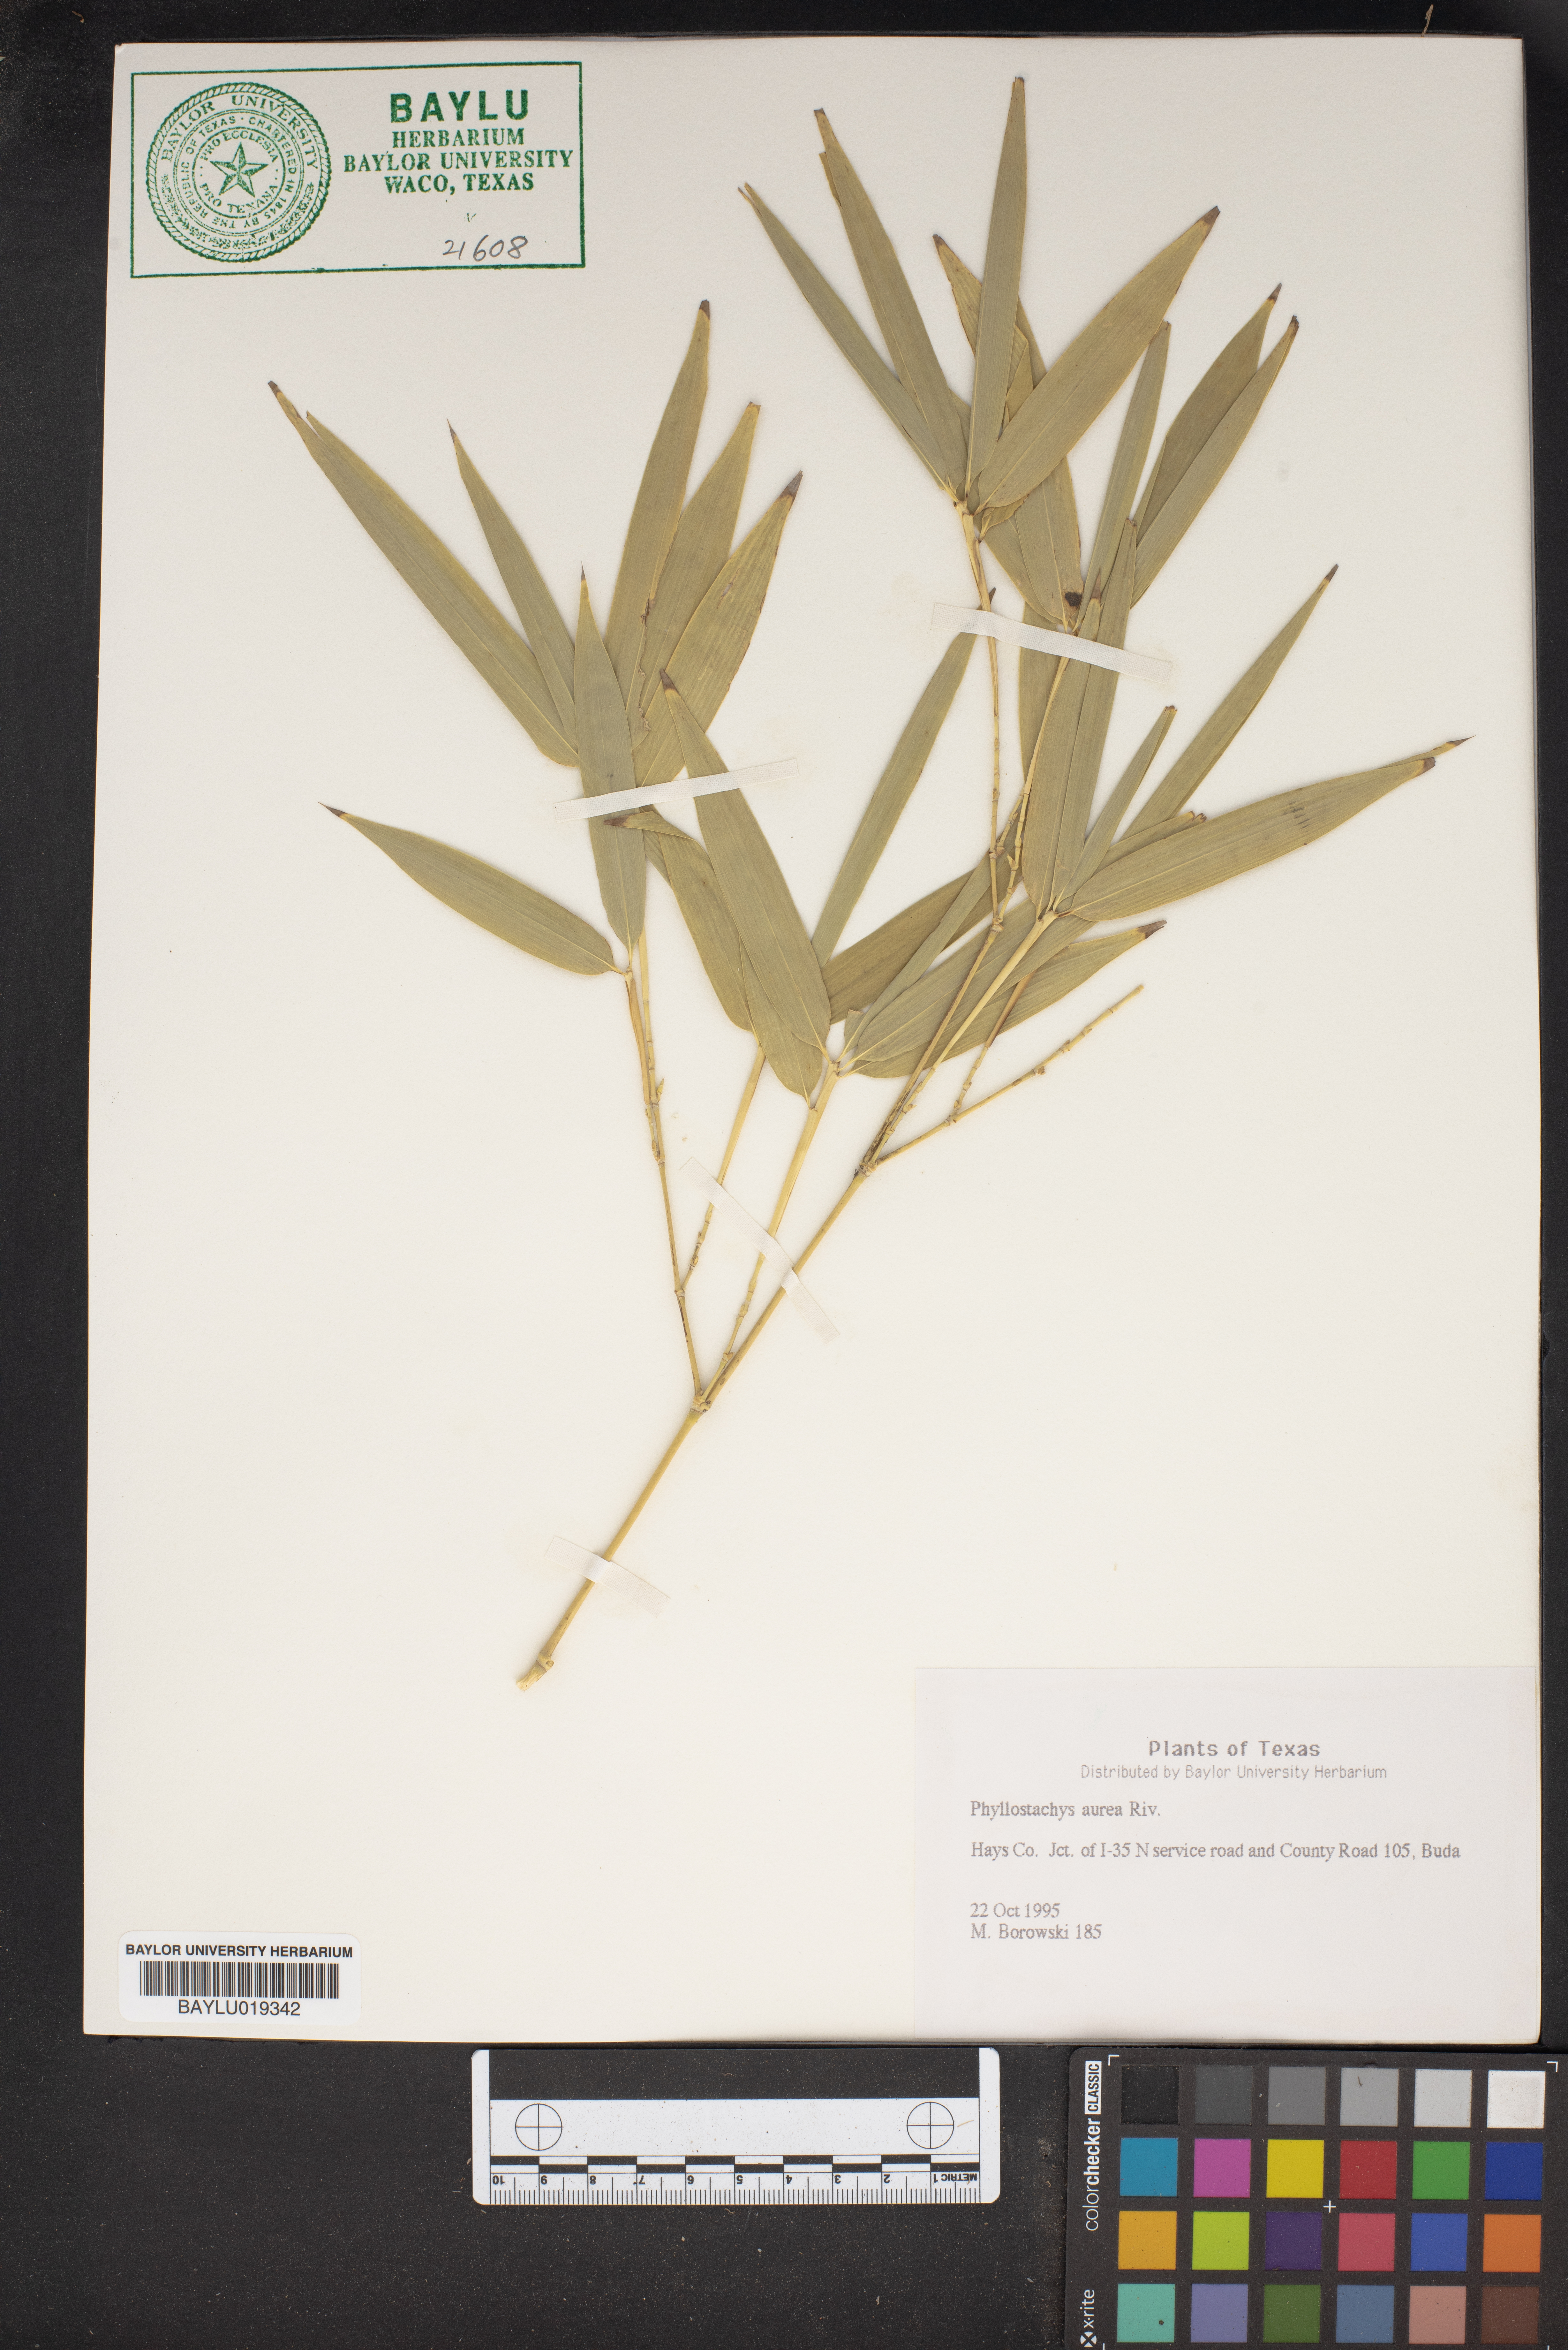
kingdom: Plantae
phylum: Tracheophyta
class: Liliopsida
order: Poales
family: Poaceae
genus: Phyllostachys
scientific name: Phyllostachys aurea
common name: Golden bamboo
